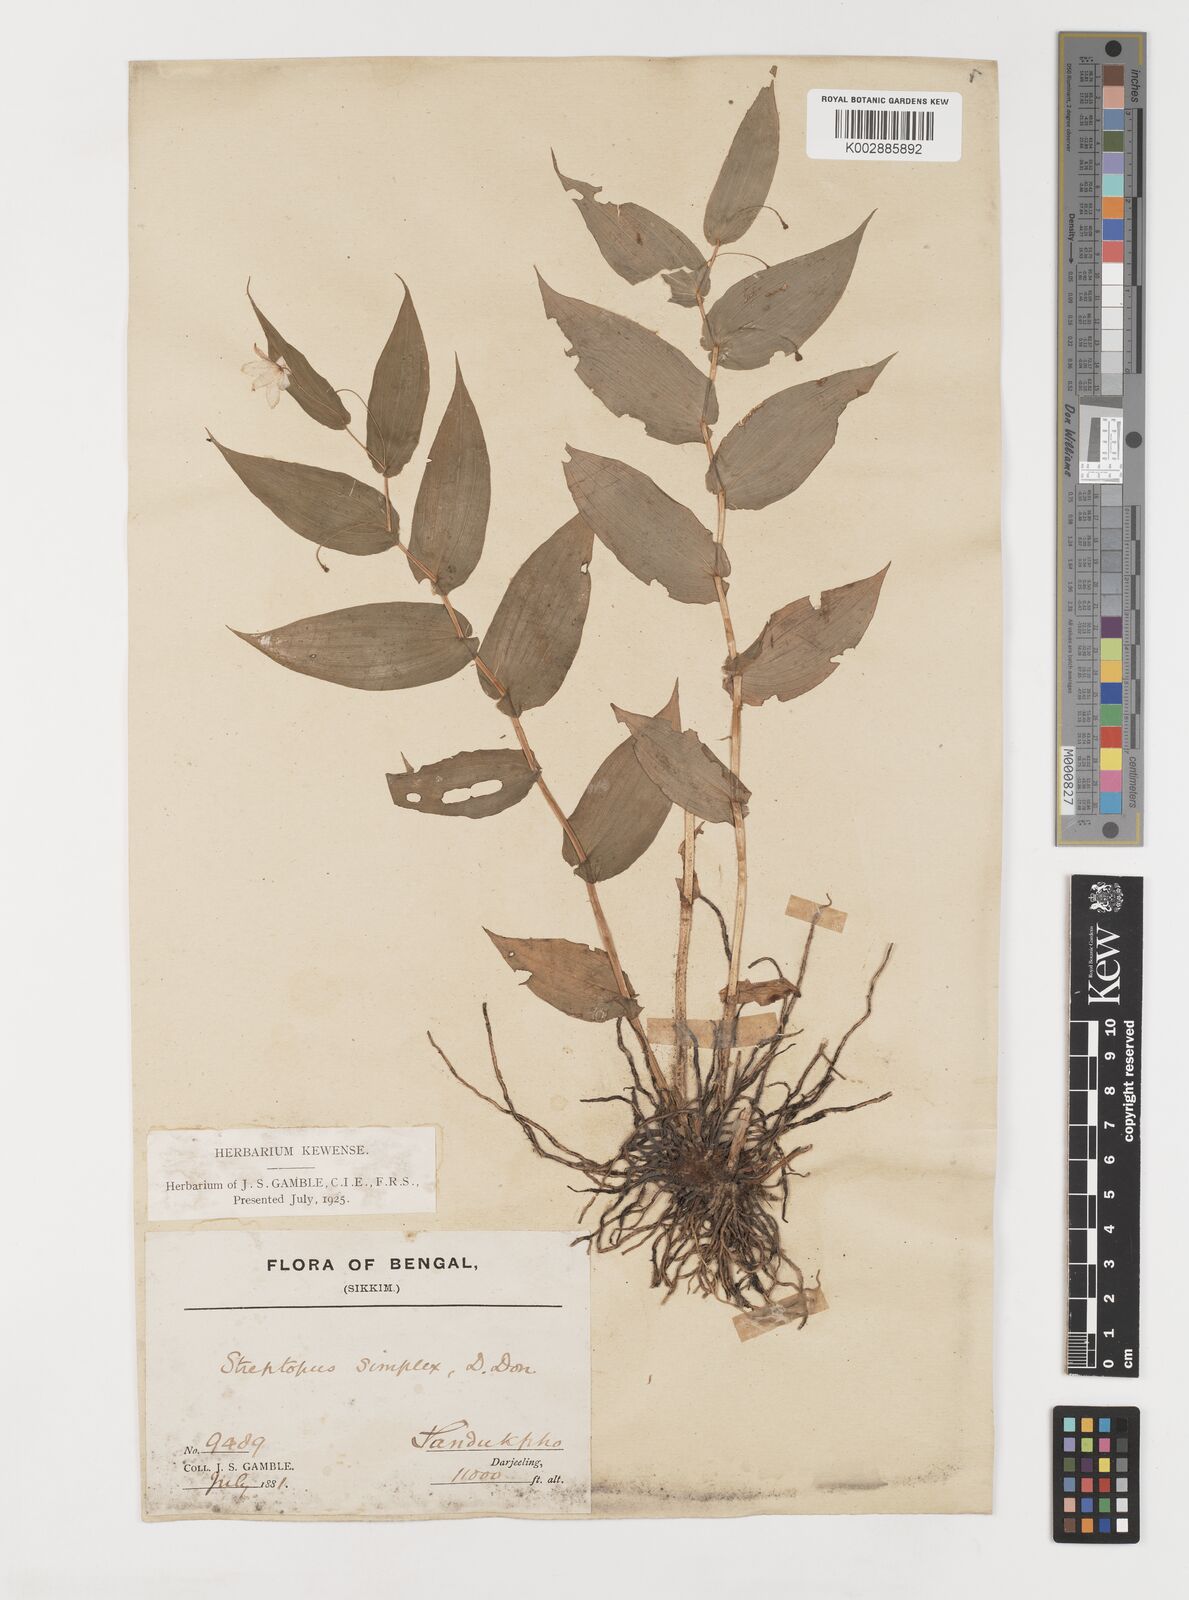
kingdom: Plantae
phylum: Tracheophyta
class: Liliopsida
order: Liliales
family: Liliaceae
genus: Streptopus
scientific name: Streptopus simplex
